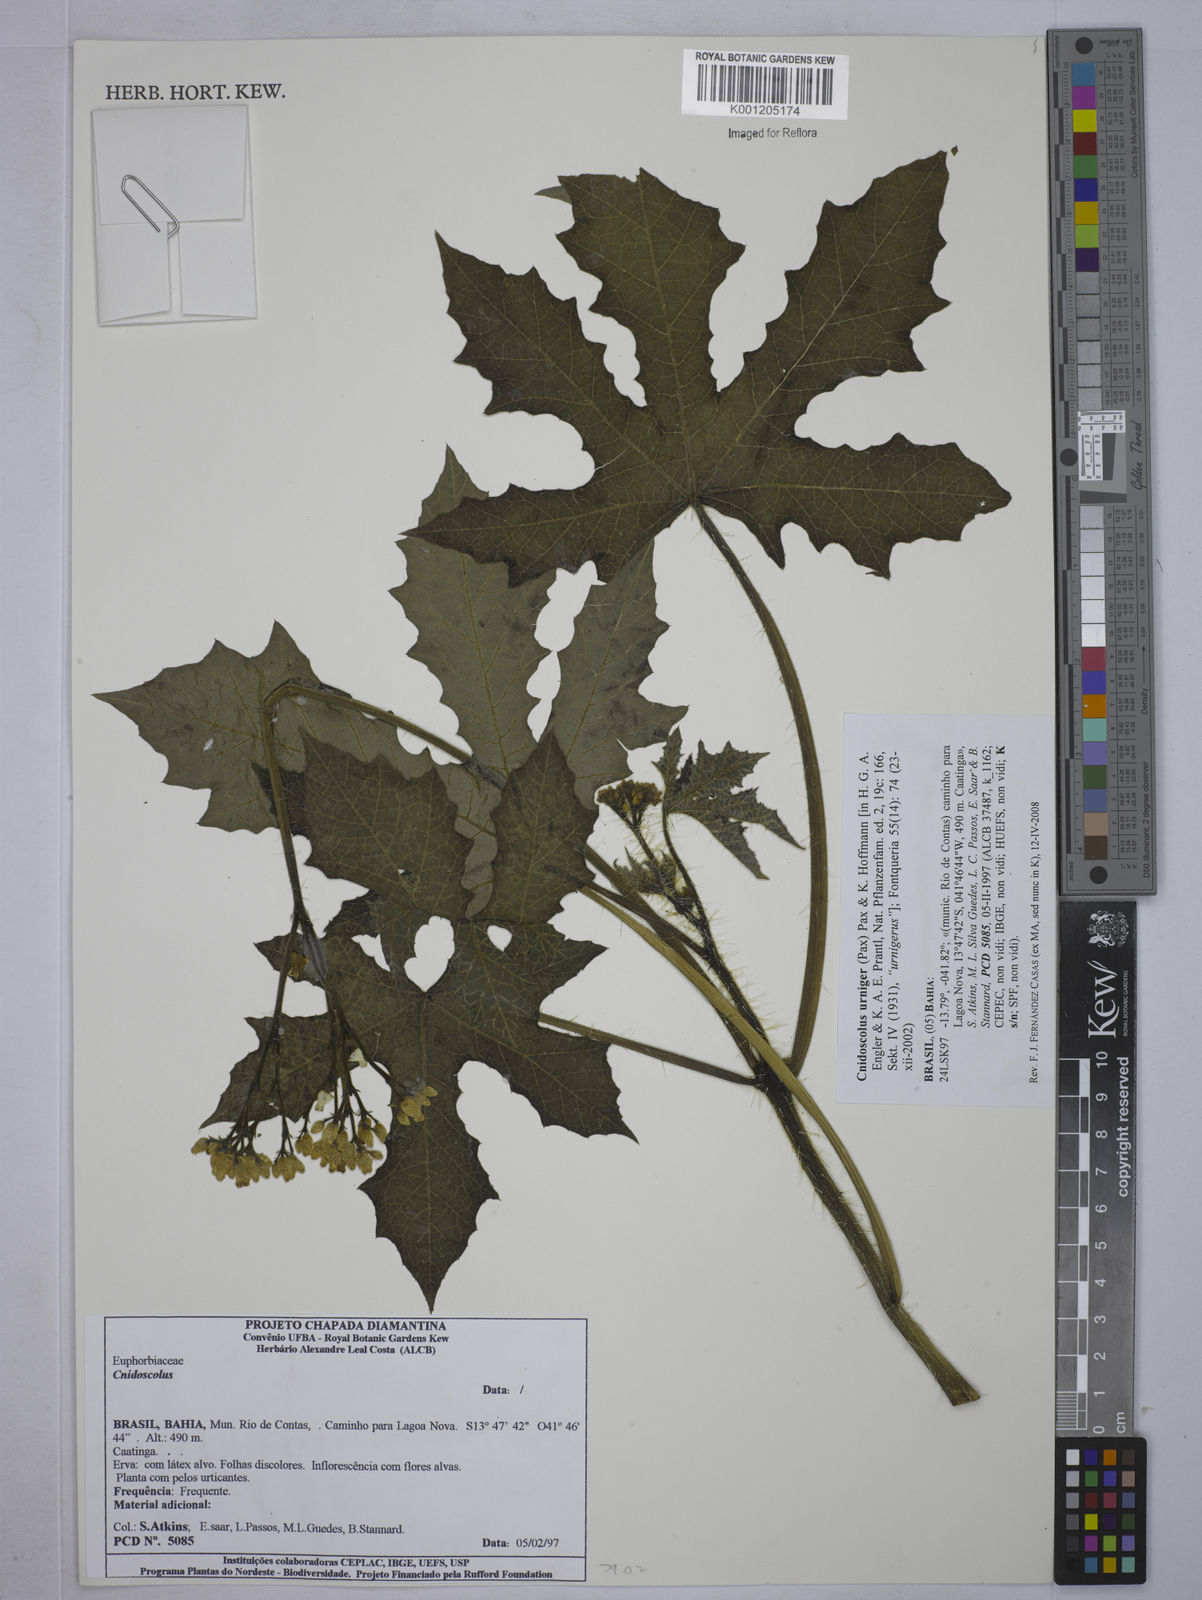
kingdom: Plantae
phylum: Tracheophyta
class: Magnoliopsida
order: Malpighiales
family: Euphorbiaceae
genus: Cnidoscolus
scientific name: Cnidoscolus
